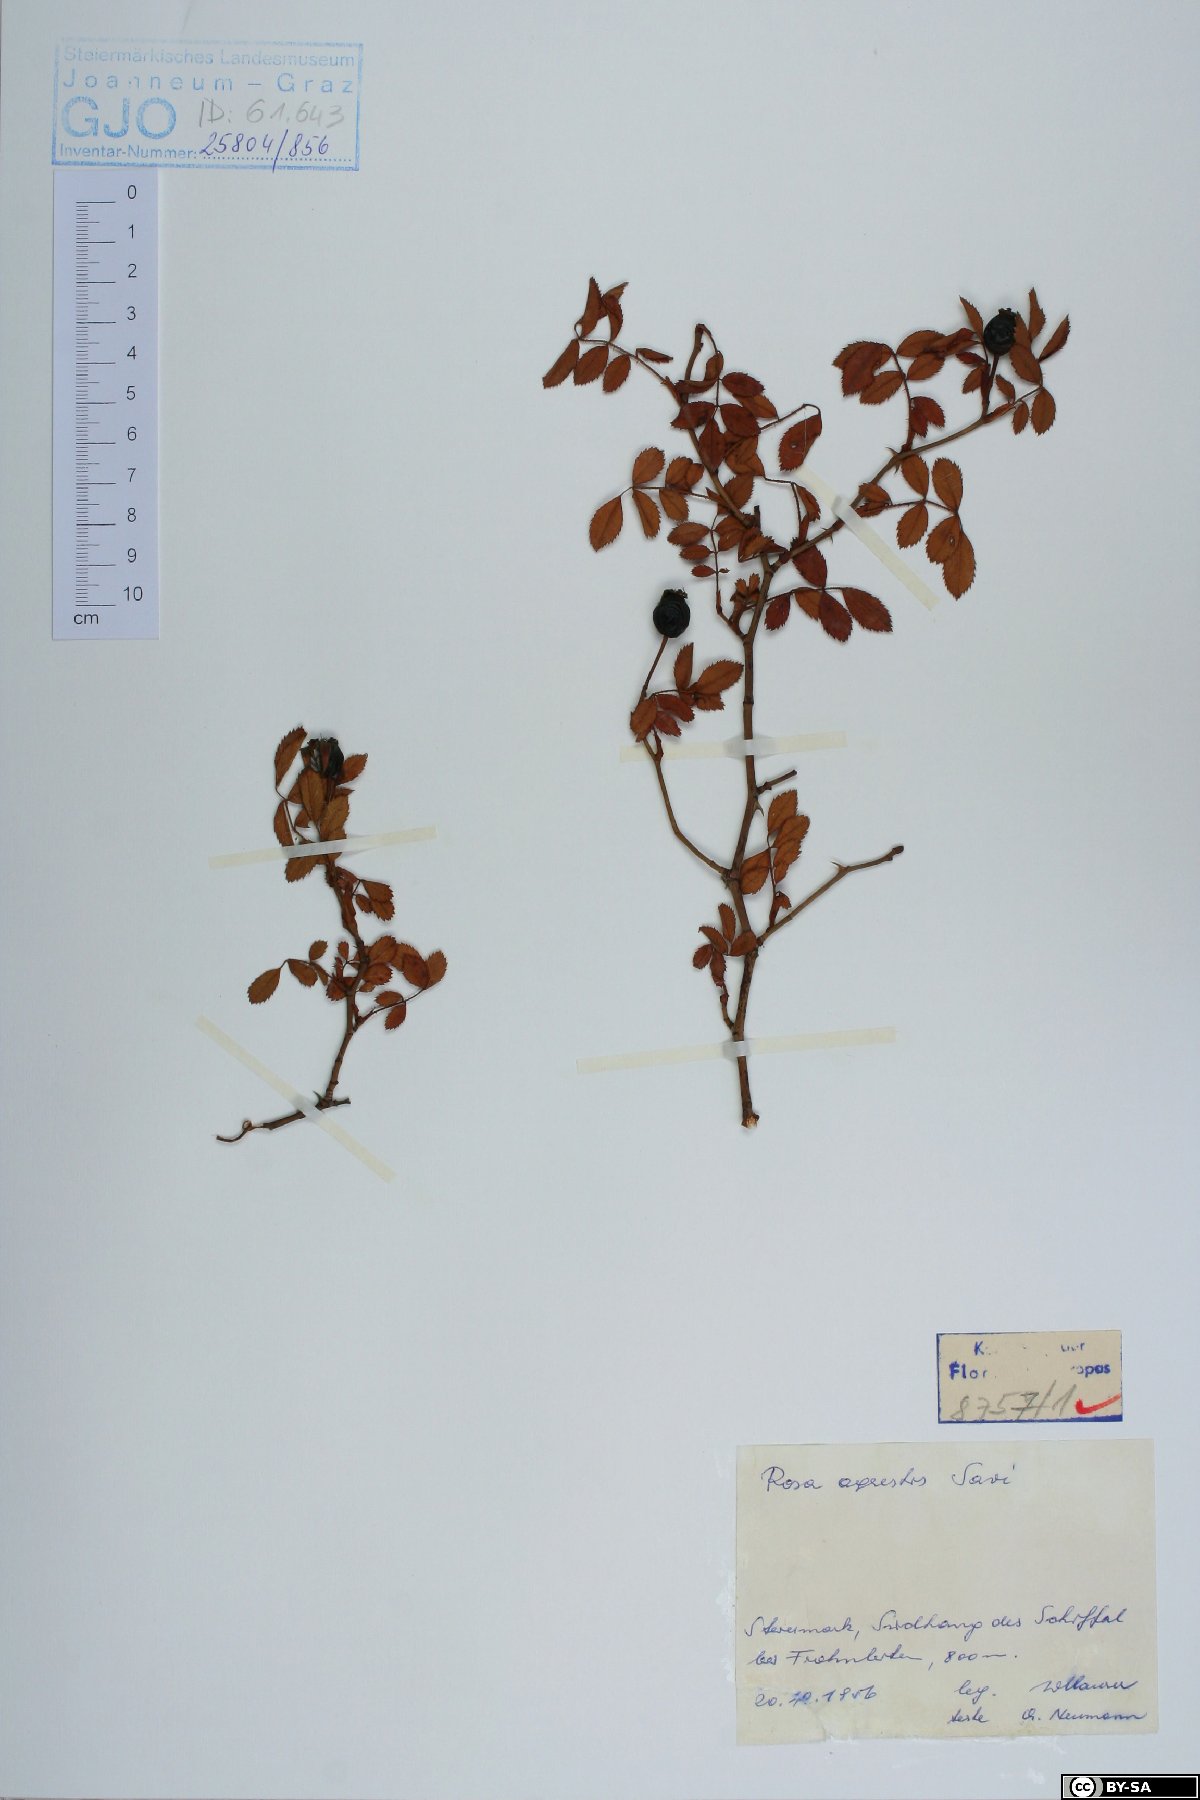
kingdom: Plantae
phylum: Tracheophyta
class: Magnoliopsida
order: Rosales
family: Rosaceae
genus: Rosa
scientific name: Rosa agrestis
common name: Fieldbriar
